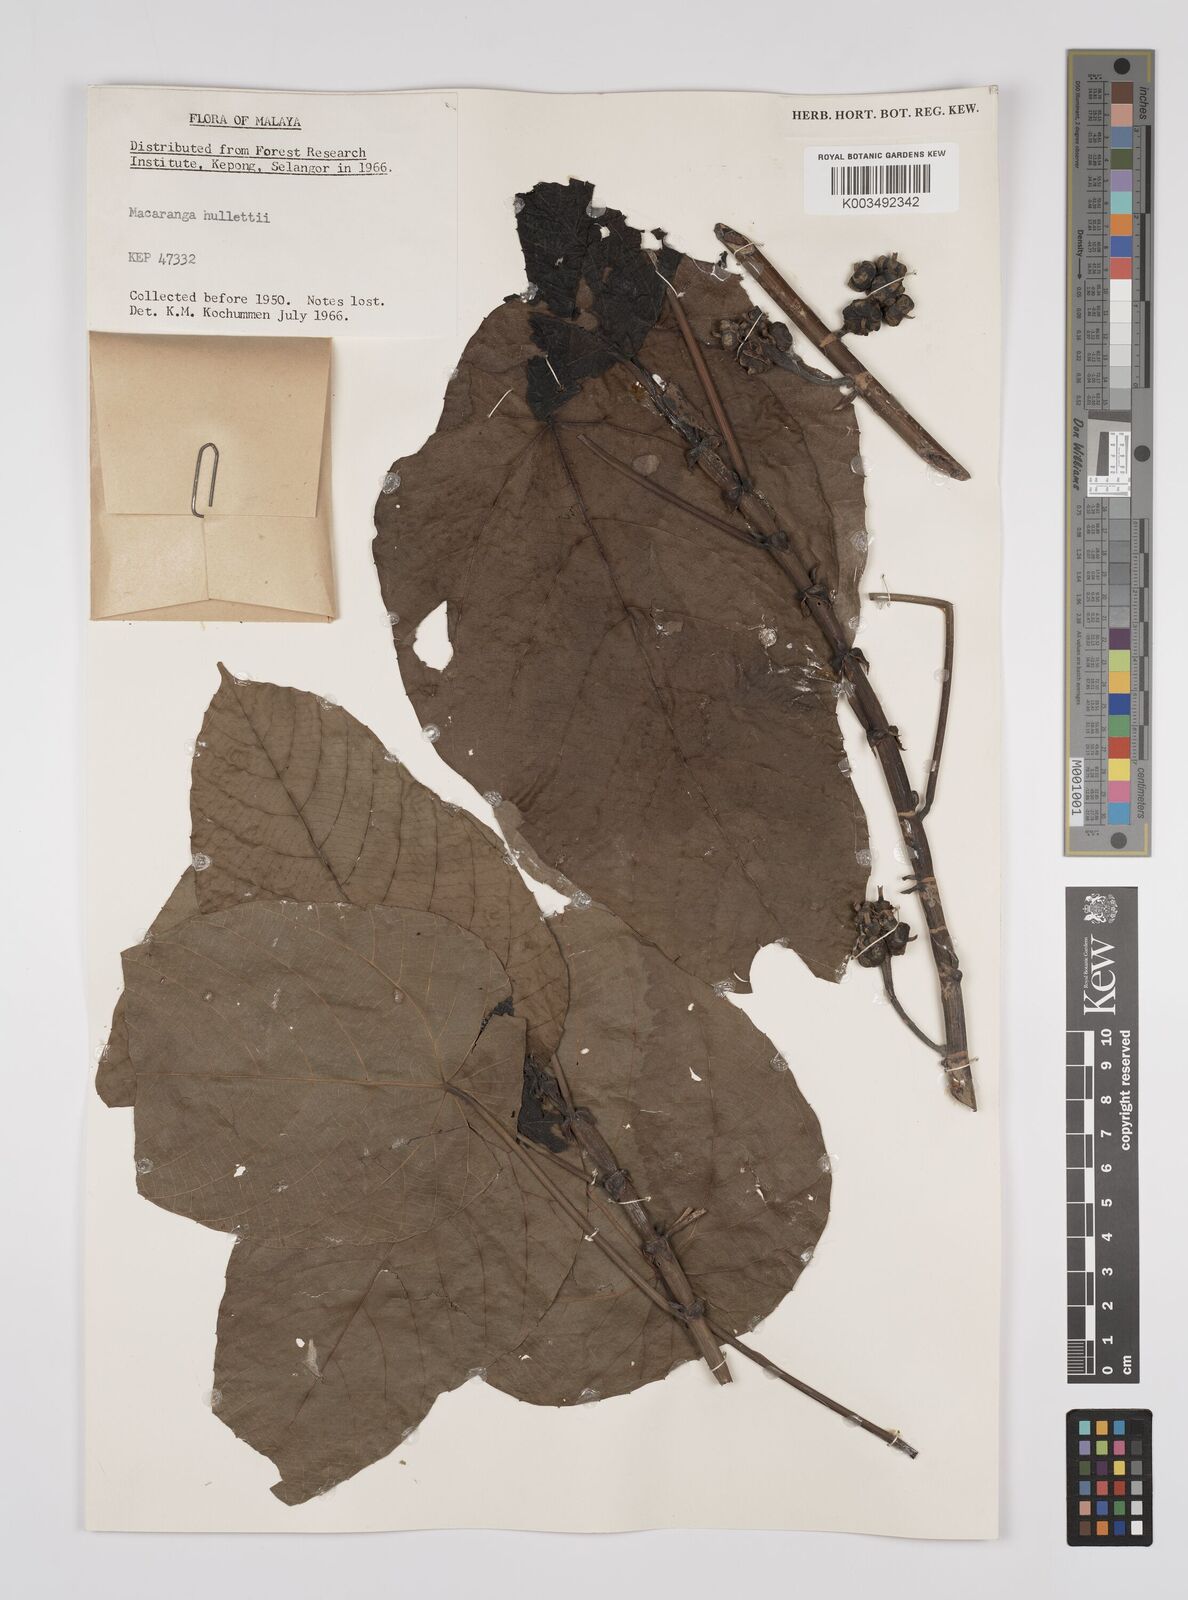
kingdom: Plantae
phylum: Tracheophyta
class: Magnoliopsida
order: Malpighiales
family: Euphorbiaceae
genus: Macaranga
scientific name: Macaranga hullettii
